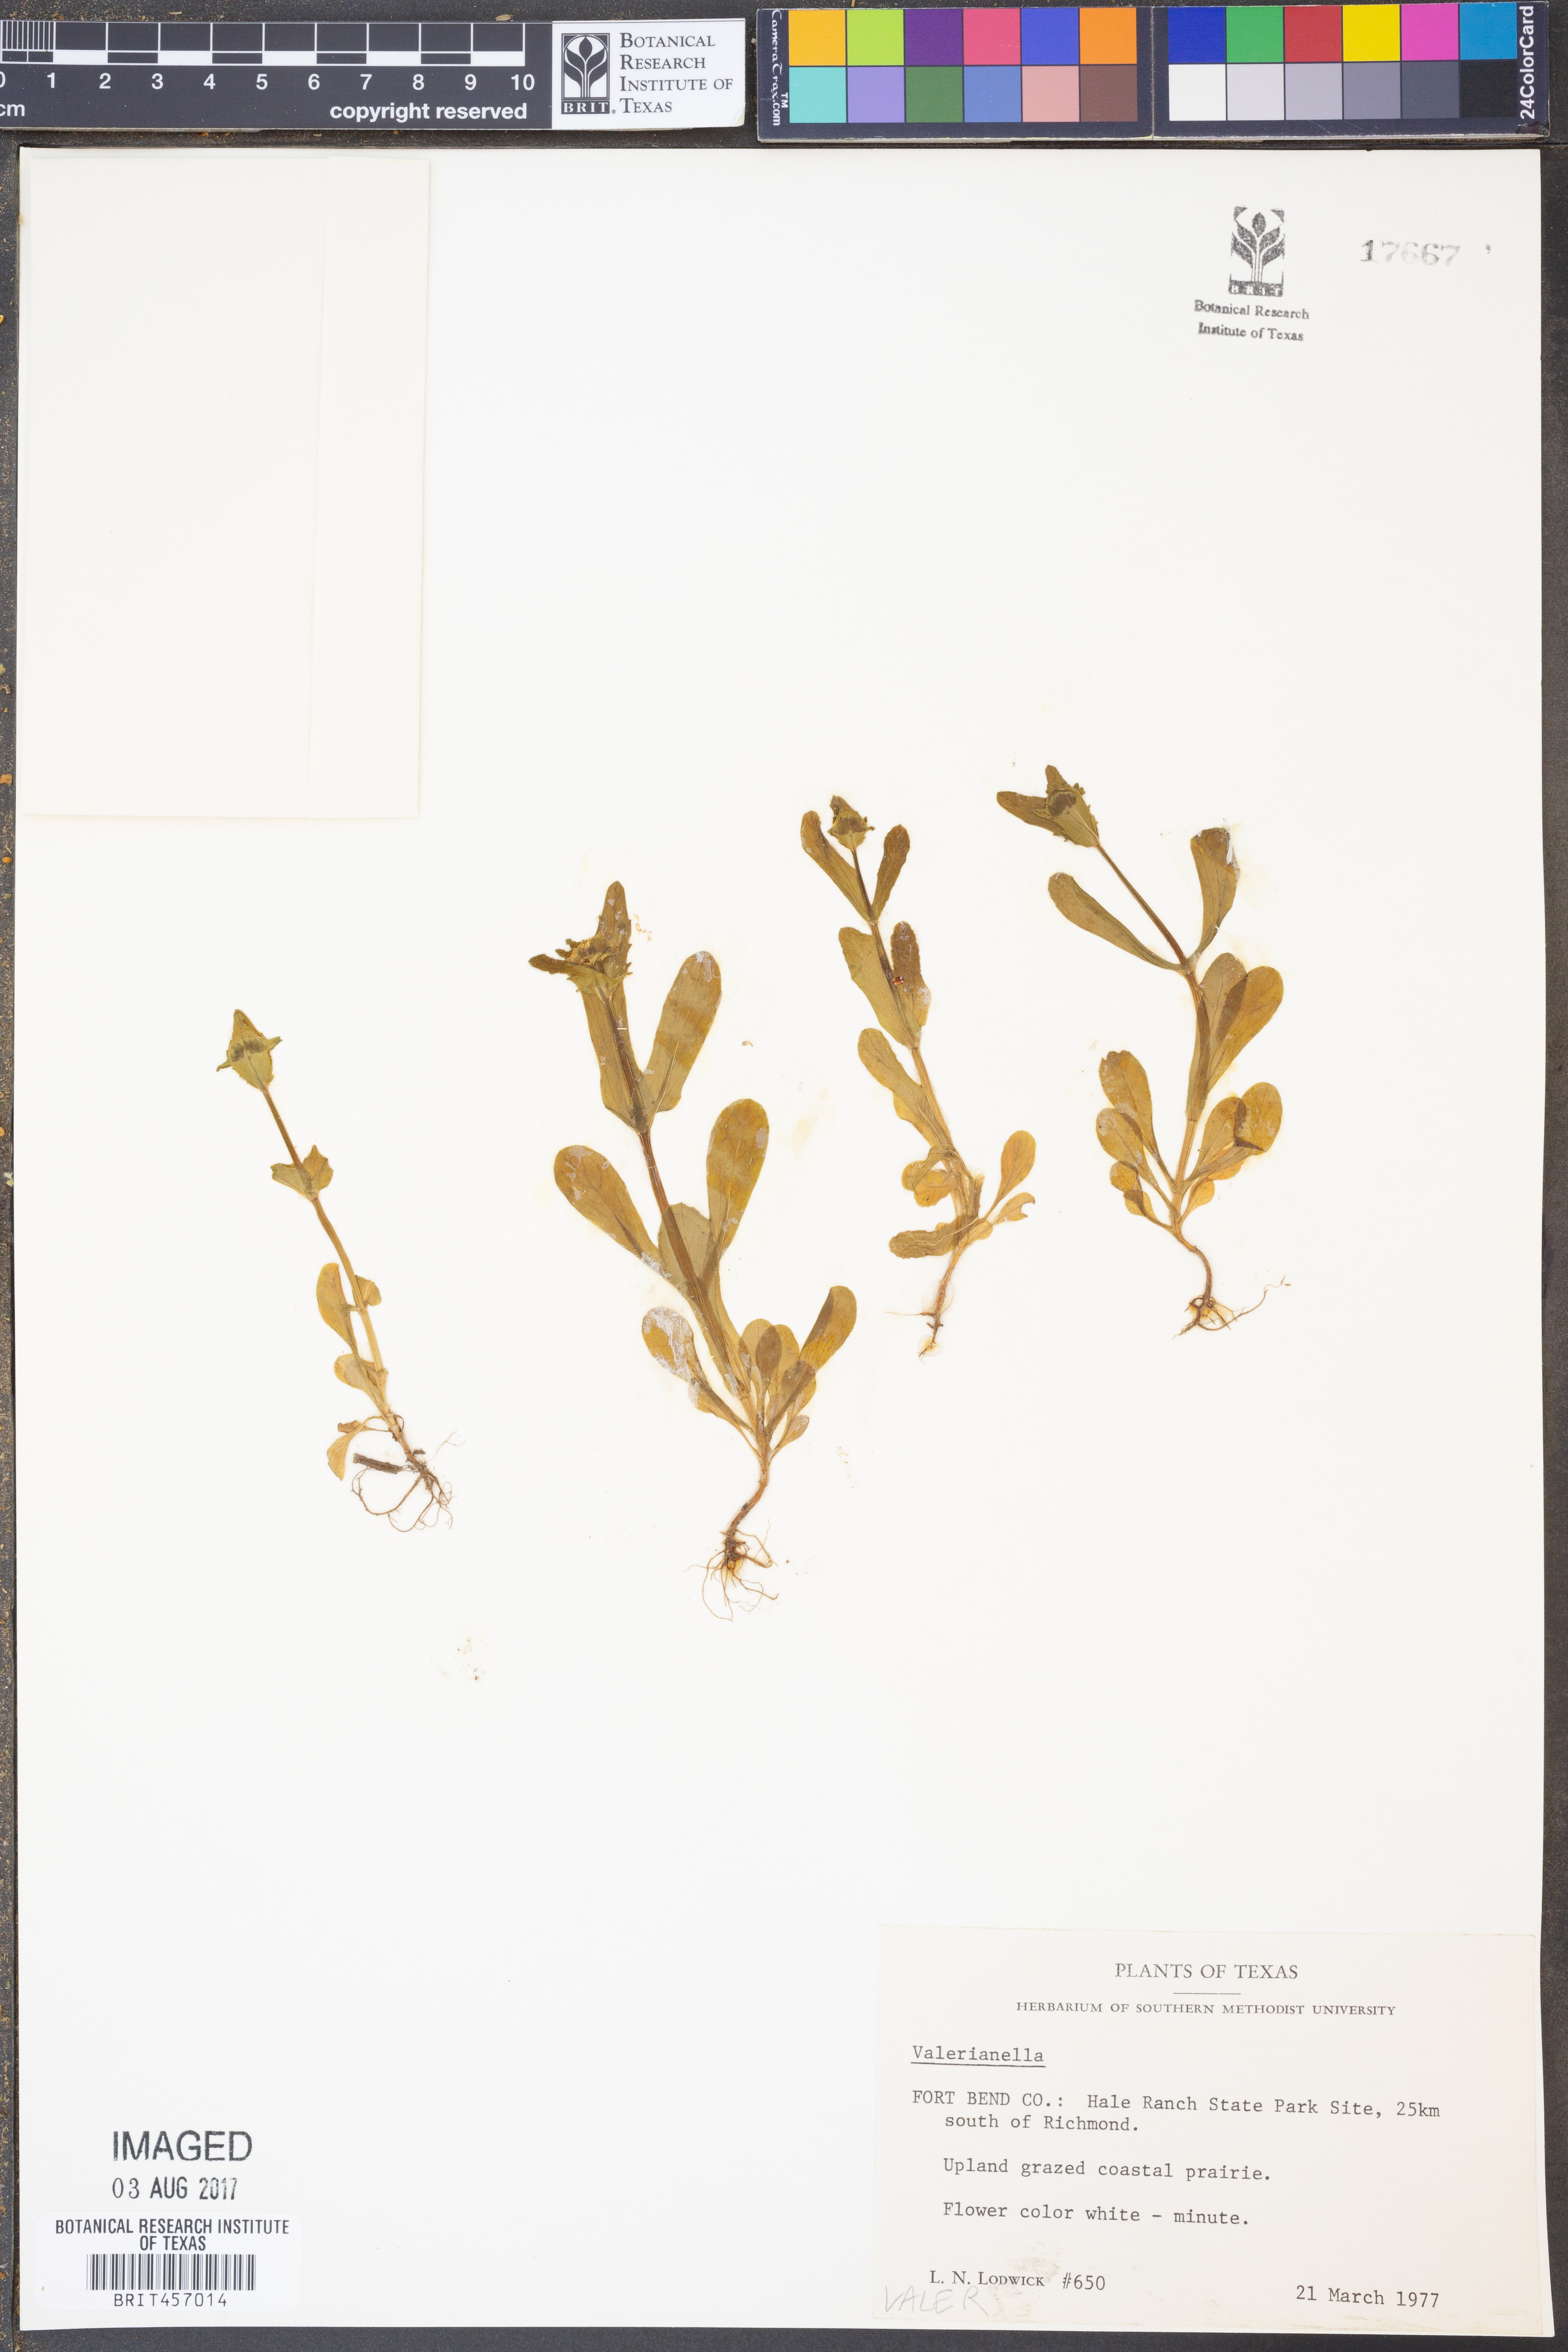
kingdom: Plantae
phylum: Tracheophyta
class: Magnoliopsida
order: Dipsacales
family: Caprifoliaceae
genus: Valerianella
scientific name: Valerianella
